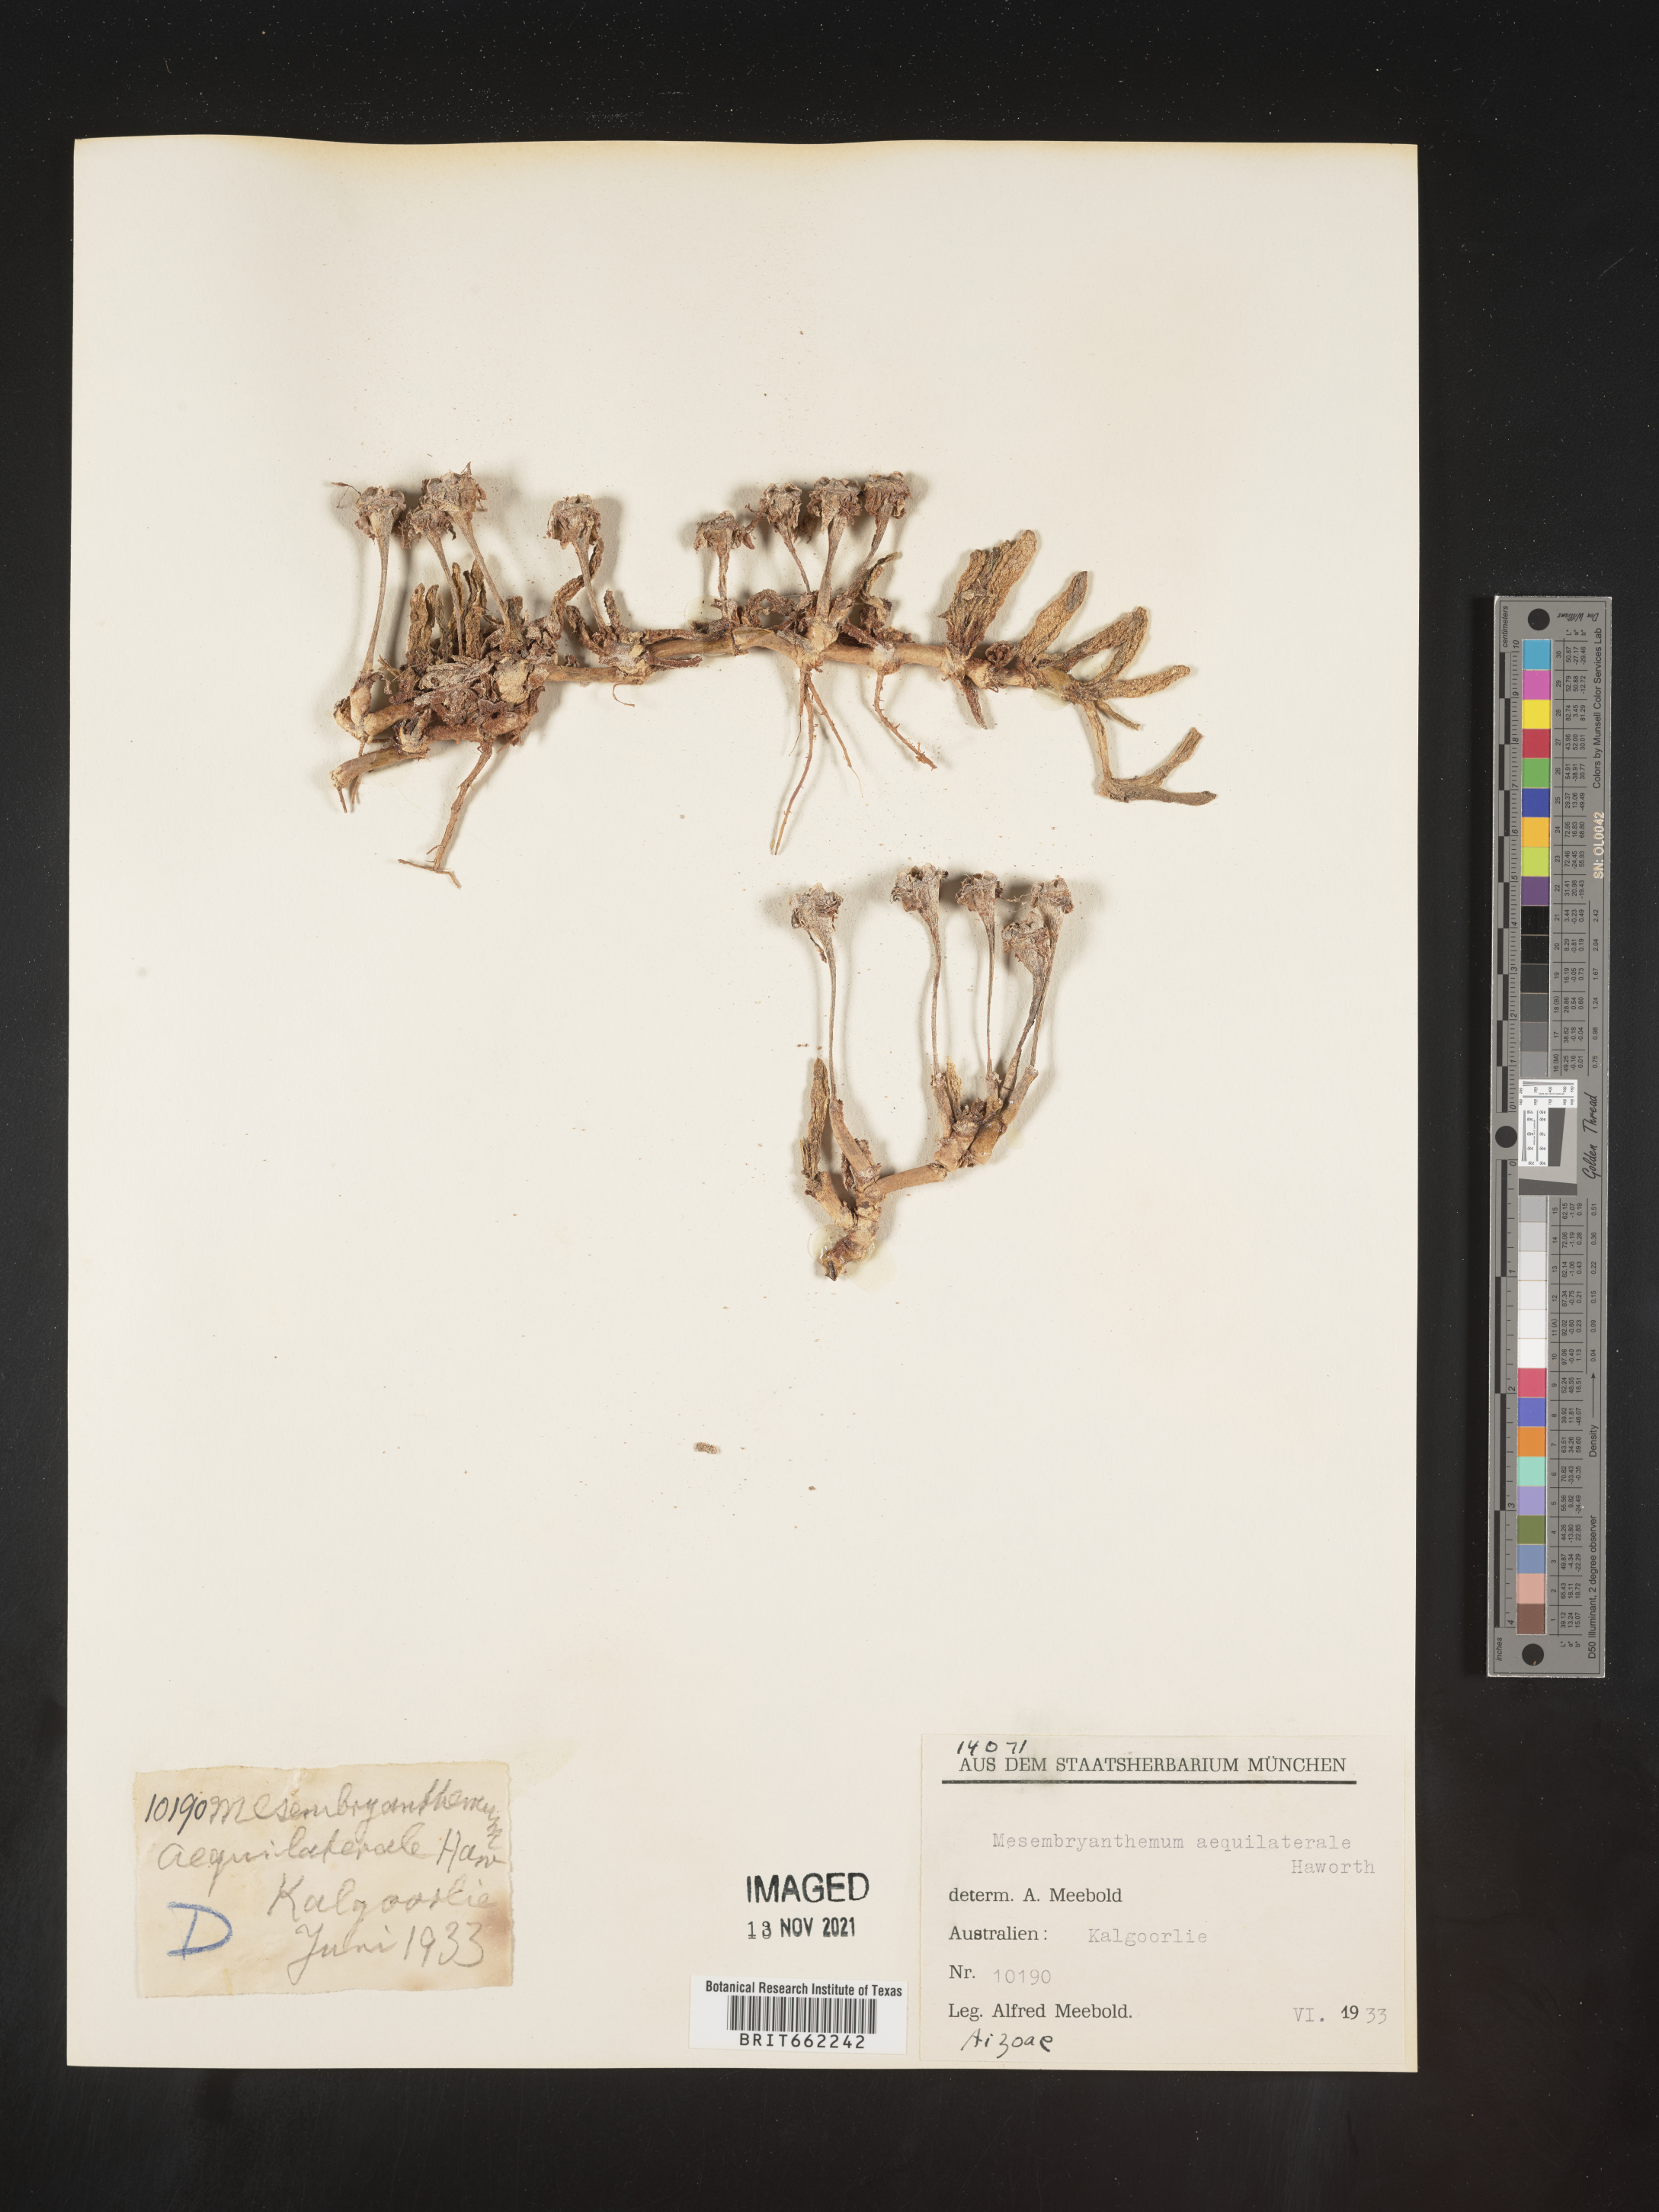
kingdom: Plantae
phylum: Tracheophyta
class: Magnoliopsida
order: Caryophyllales
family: Aizoaceae
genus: Mesembryanthemum
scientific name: Mesembryanthemum
